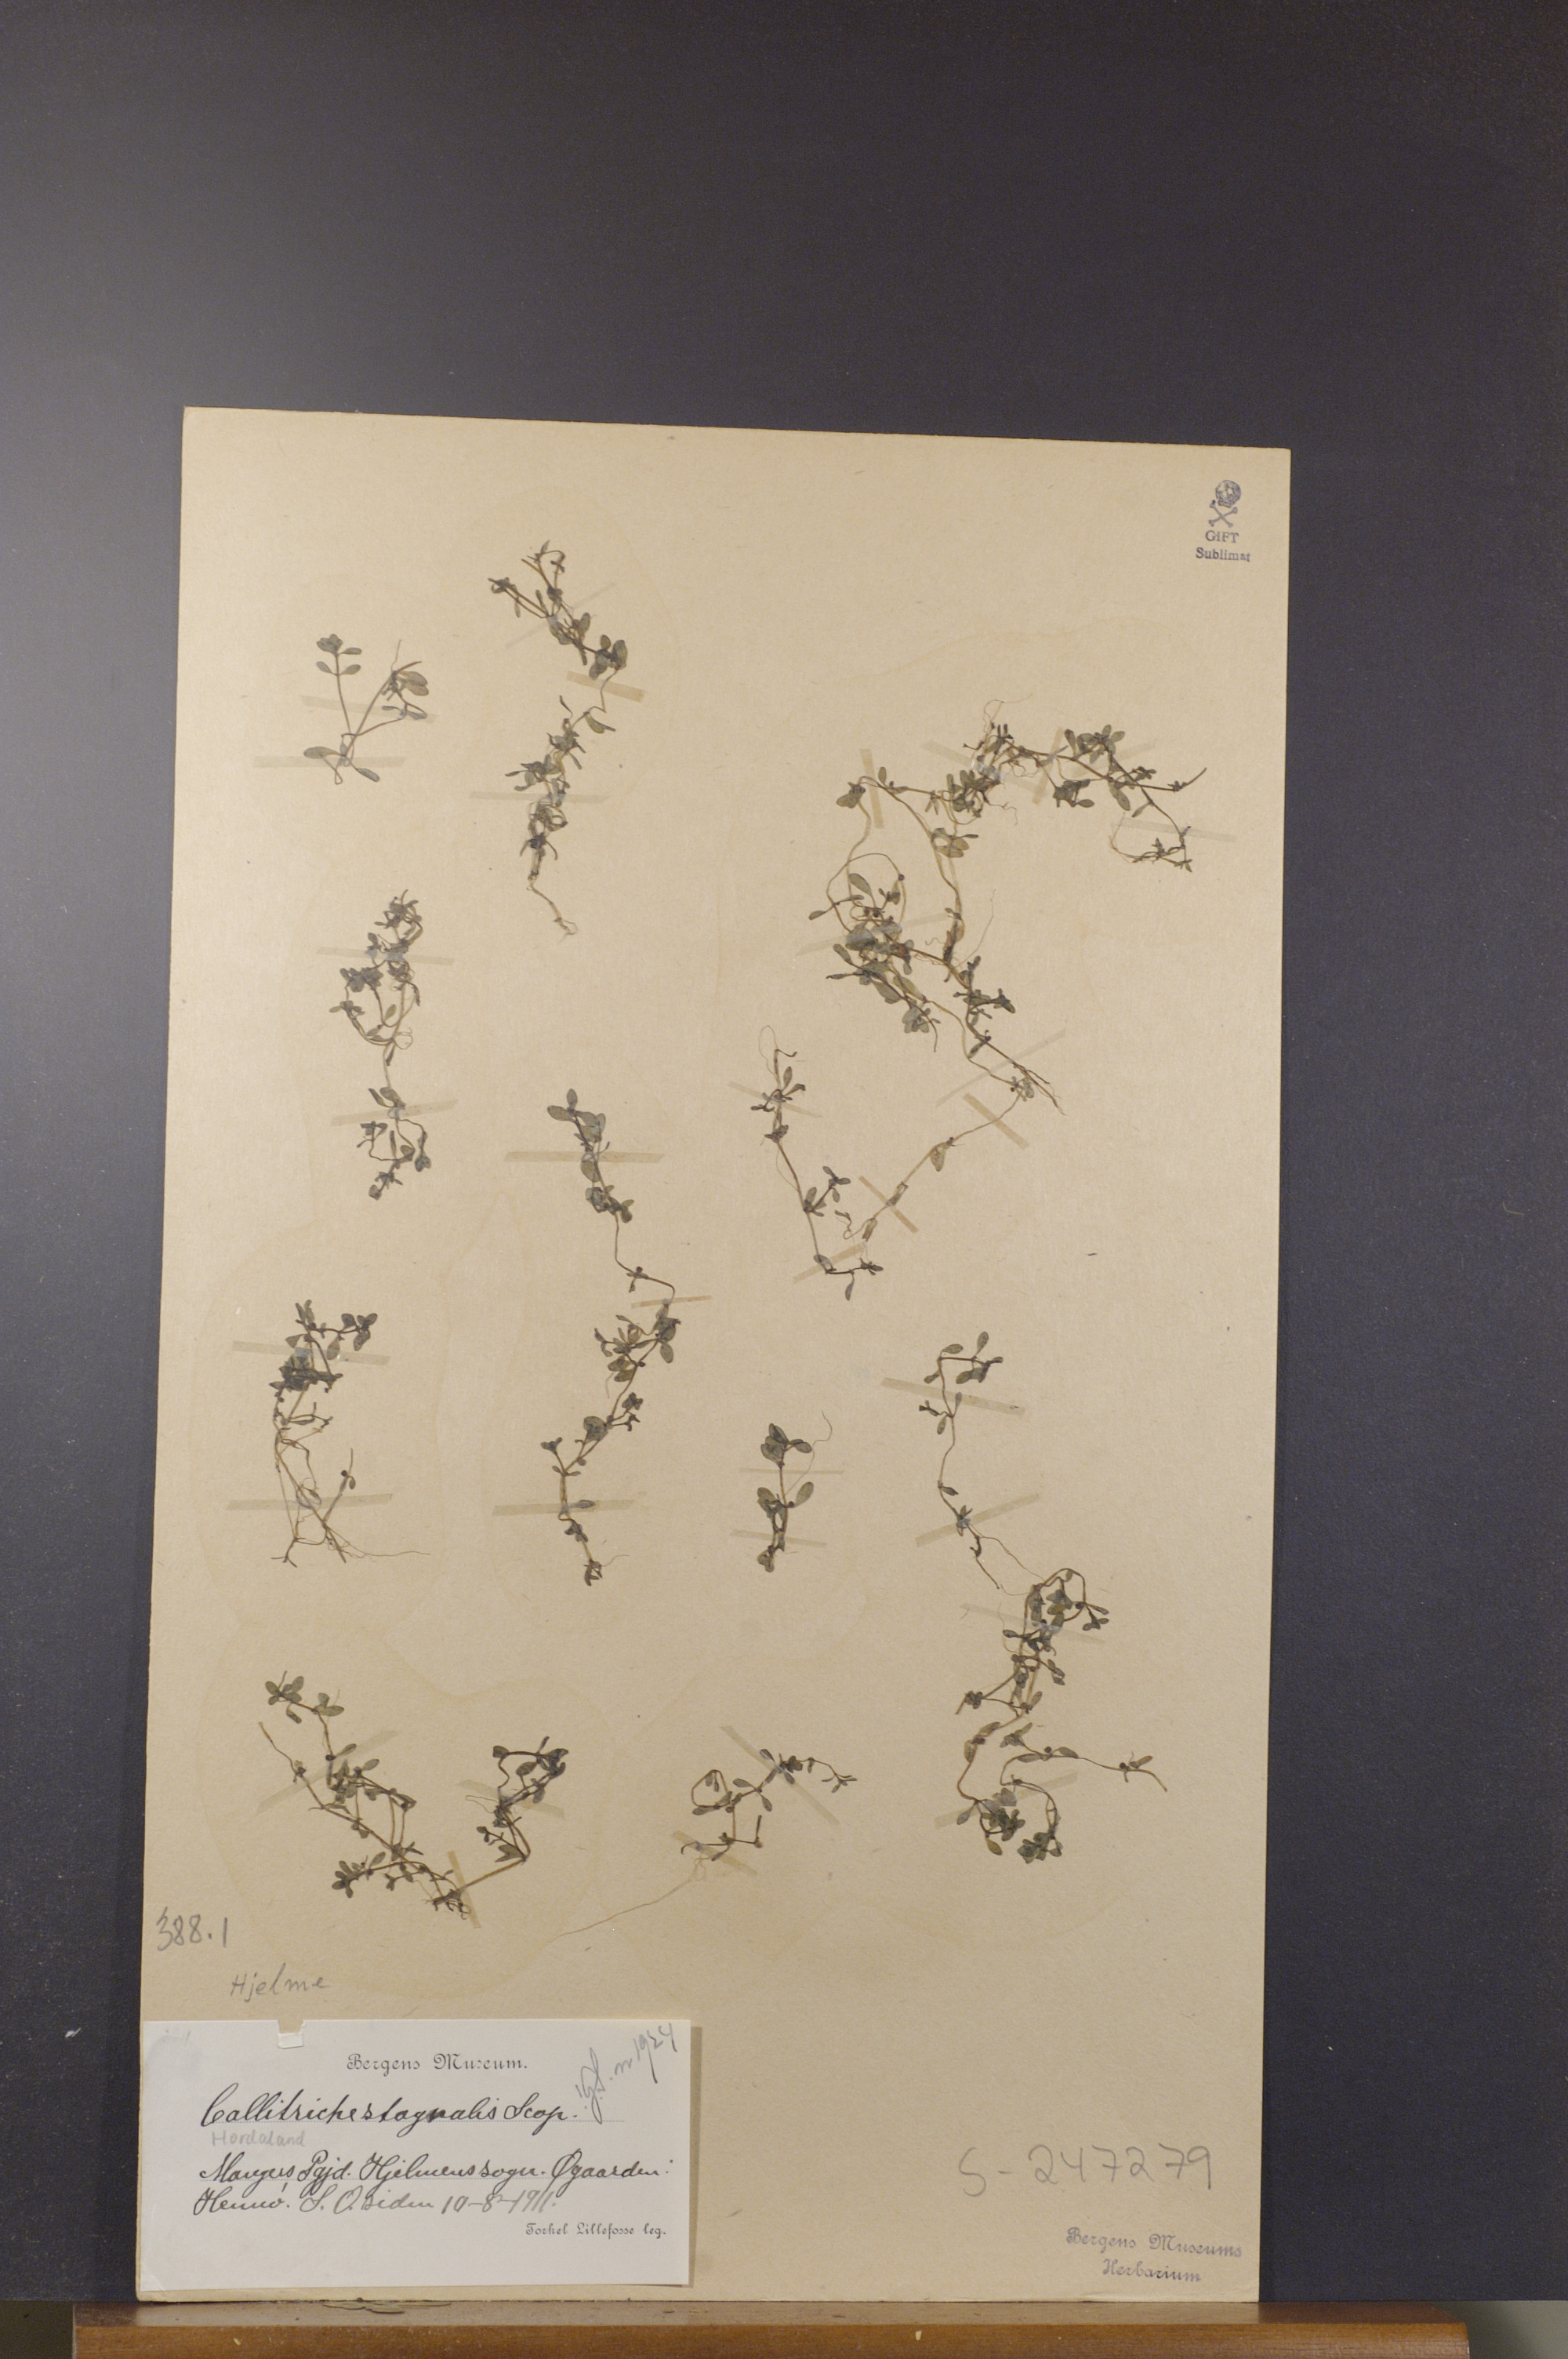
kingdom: Plantae
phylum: Tracheophyta
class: Magnoliopsida
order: Lamiales
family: Plantaginaceae
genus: Callitriche
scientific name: Callitriche stagnalis
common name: Common water-starwort
